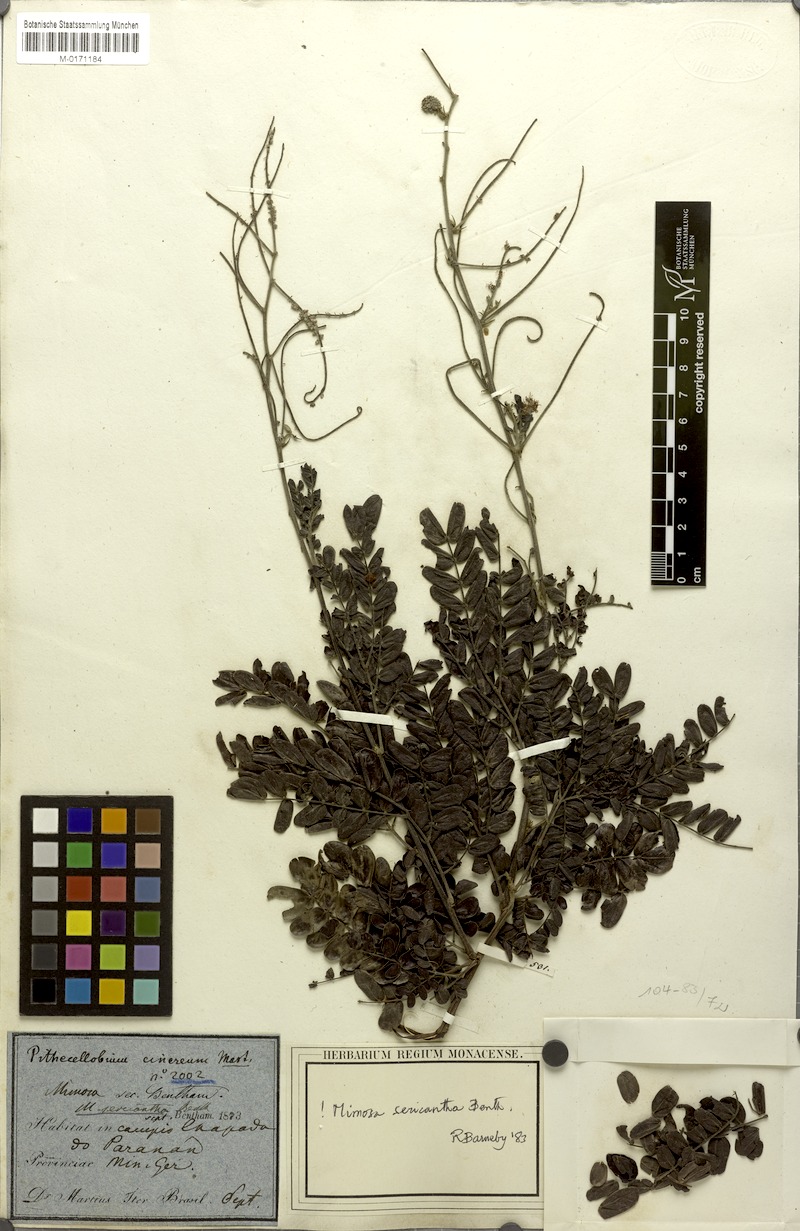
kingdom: Plantae
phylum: Tracheophyta
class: Magnoliopsida
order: Fabales
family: Fabaceae
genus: Mimosa
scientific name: Mimosa sericantha
